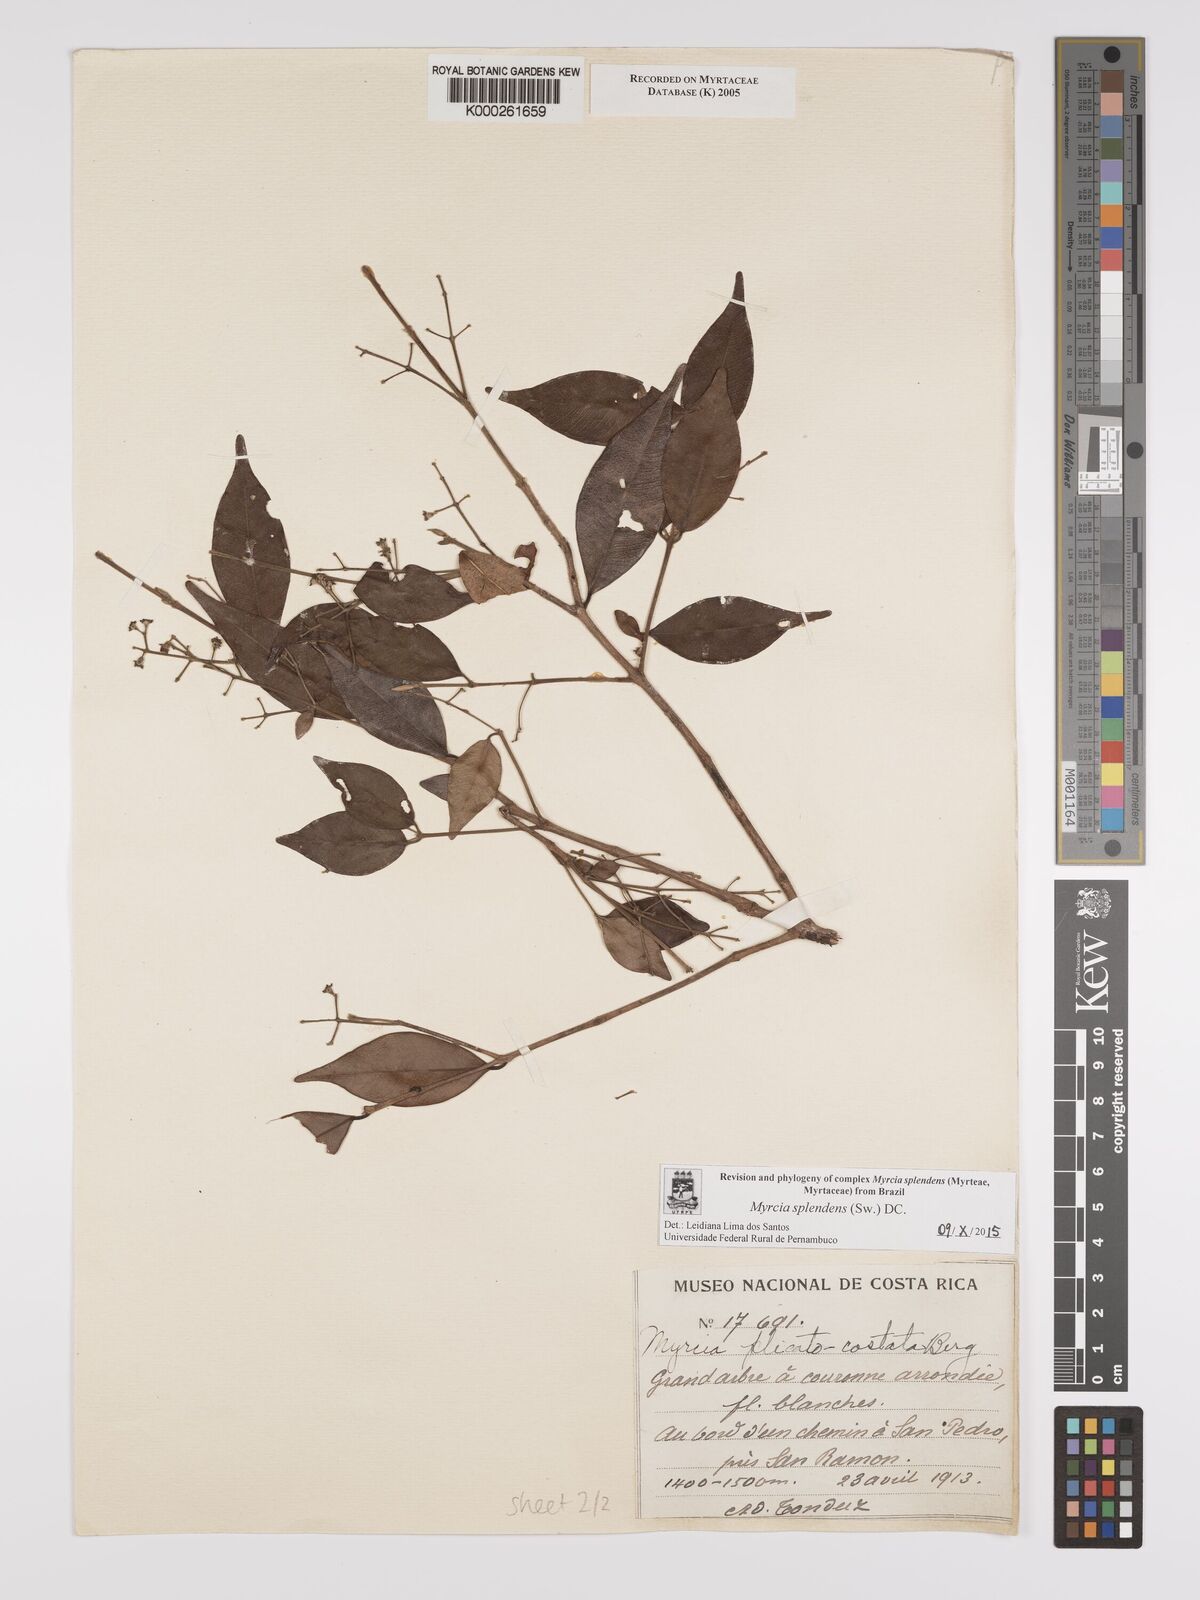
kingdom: Plantae
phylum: Tracheophyta
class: Magnoliopsida
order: Myrtales
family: Myrtaceae
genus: Myrcia
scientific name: Myrcia splendens
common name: Surinam cherry
